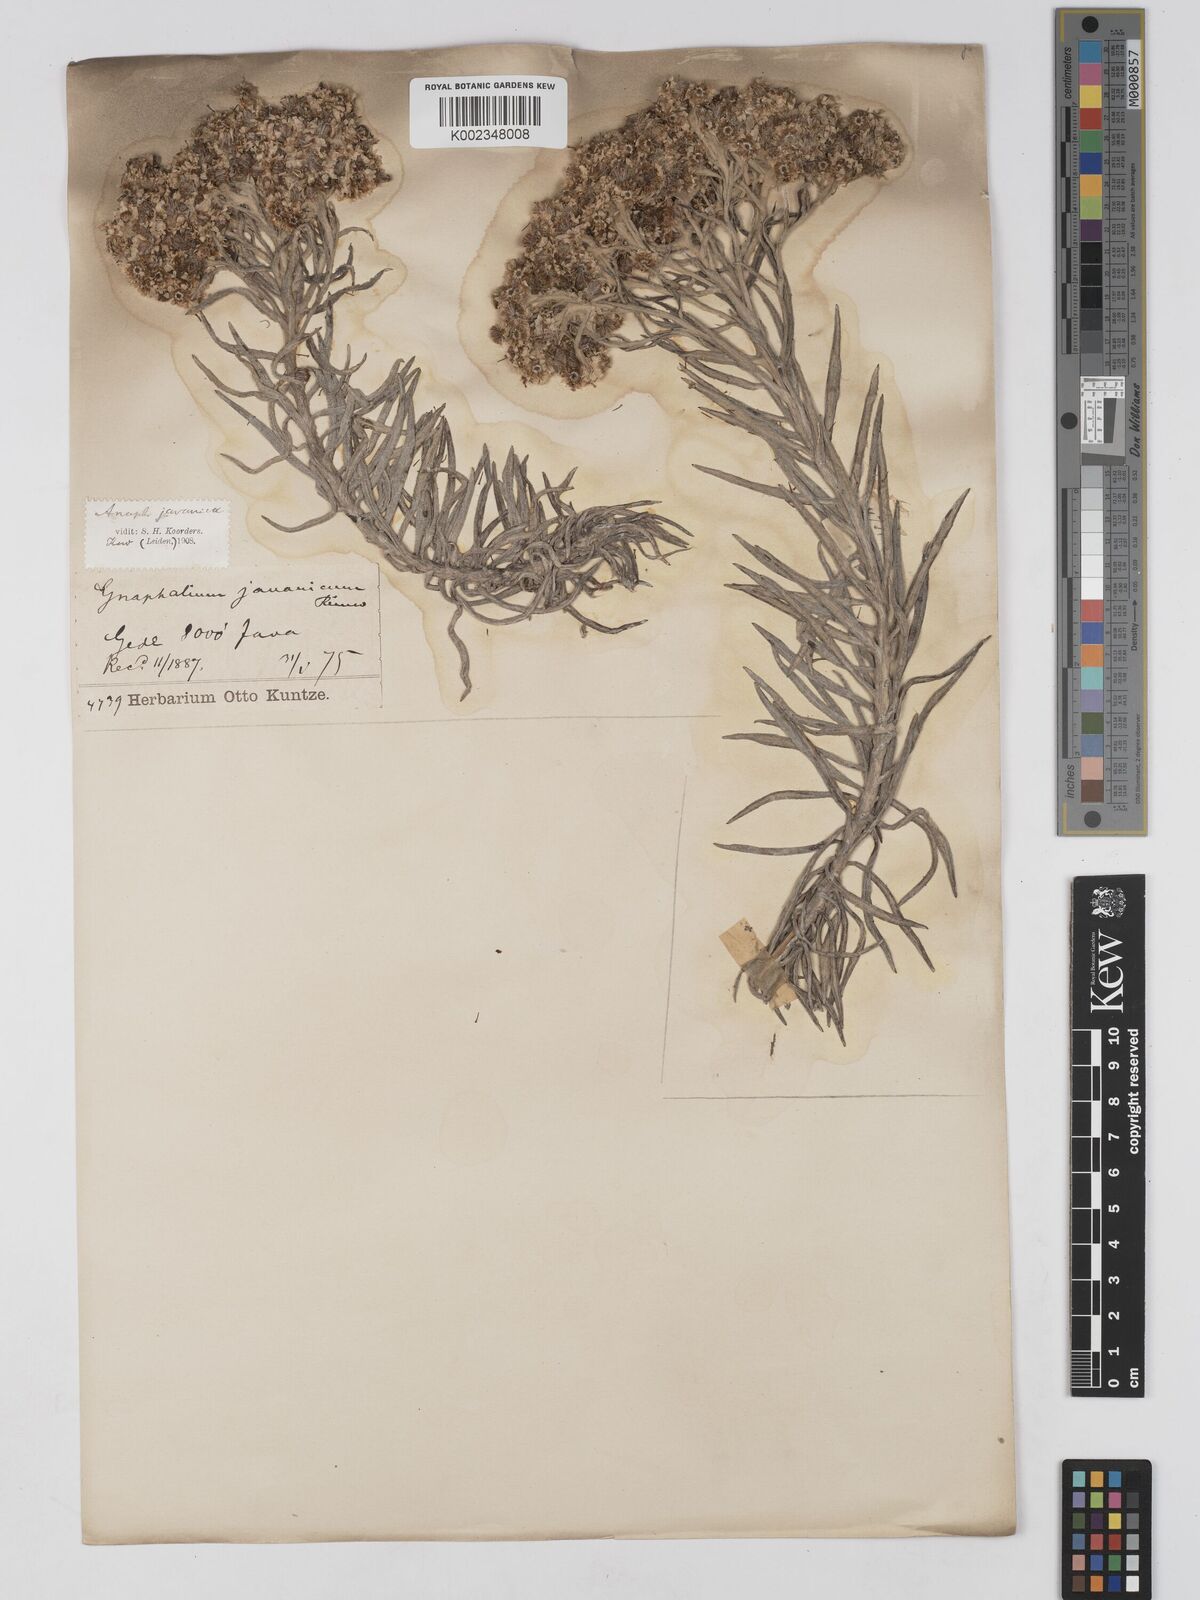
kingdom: Plantae
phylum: Tracheophyta
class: Magnoliopsida
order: Asterales
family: Asteraceae
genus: Anaphalis
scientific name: Anaphalis javanica
